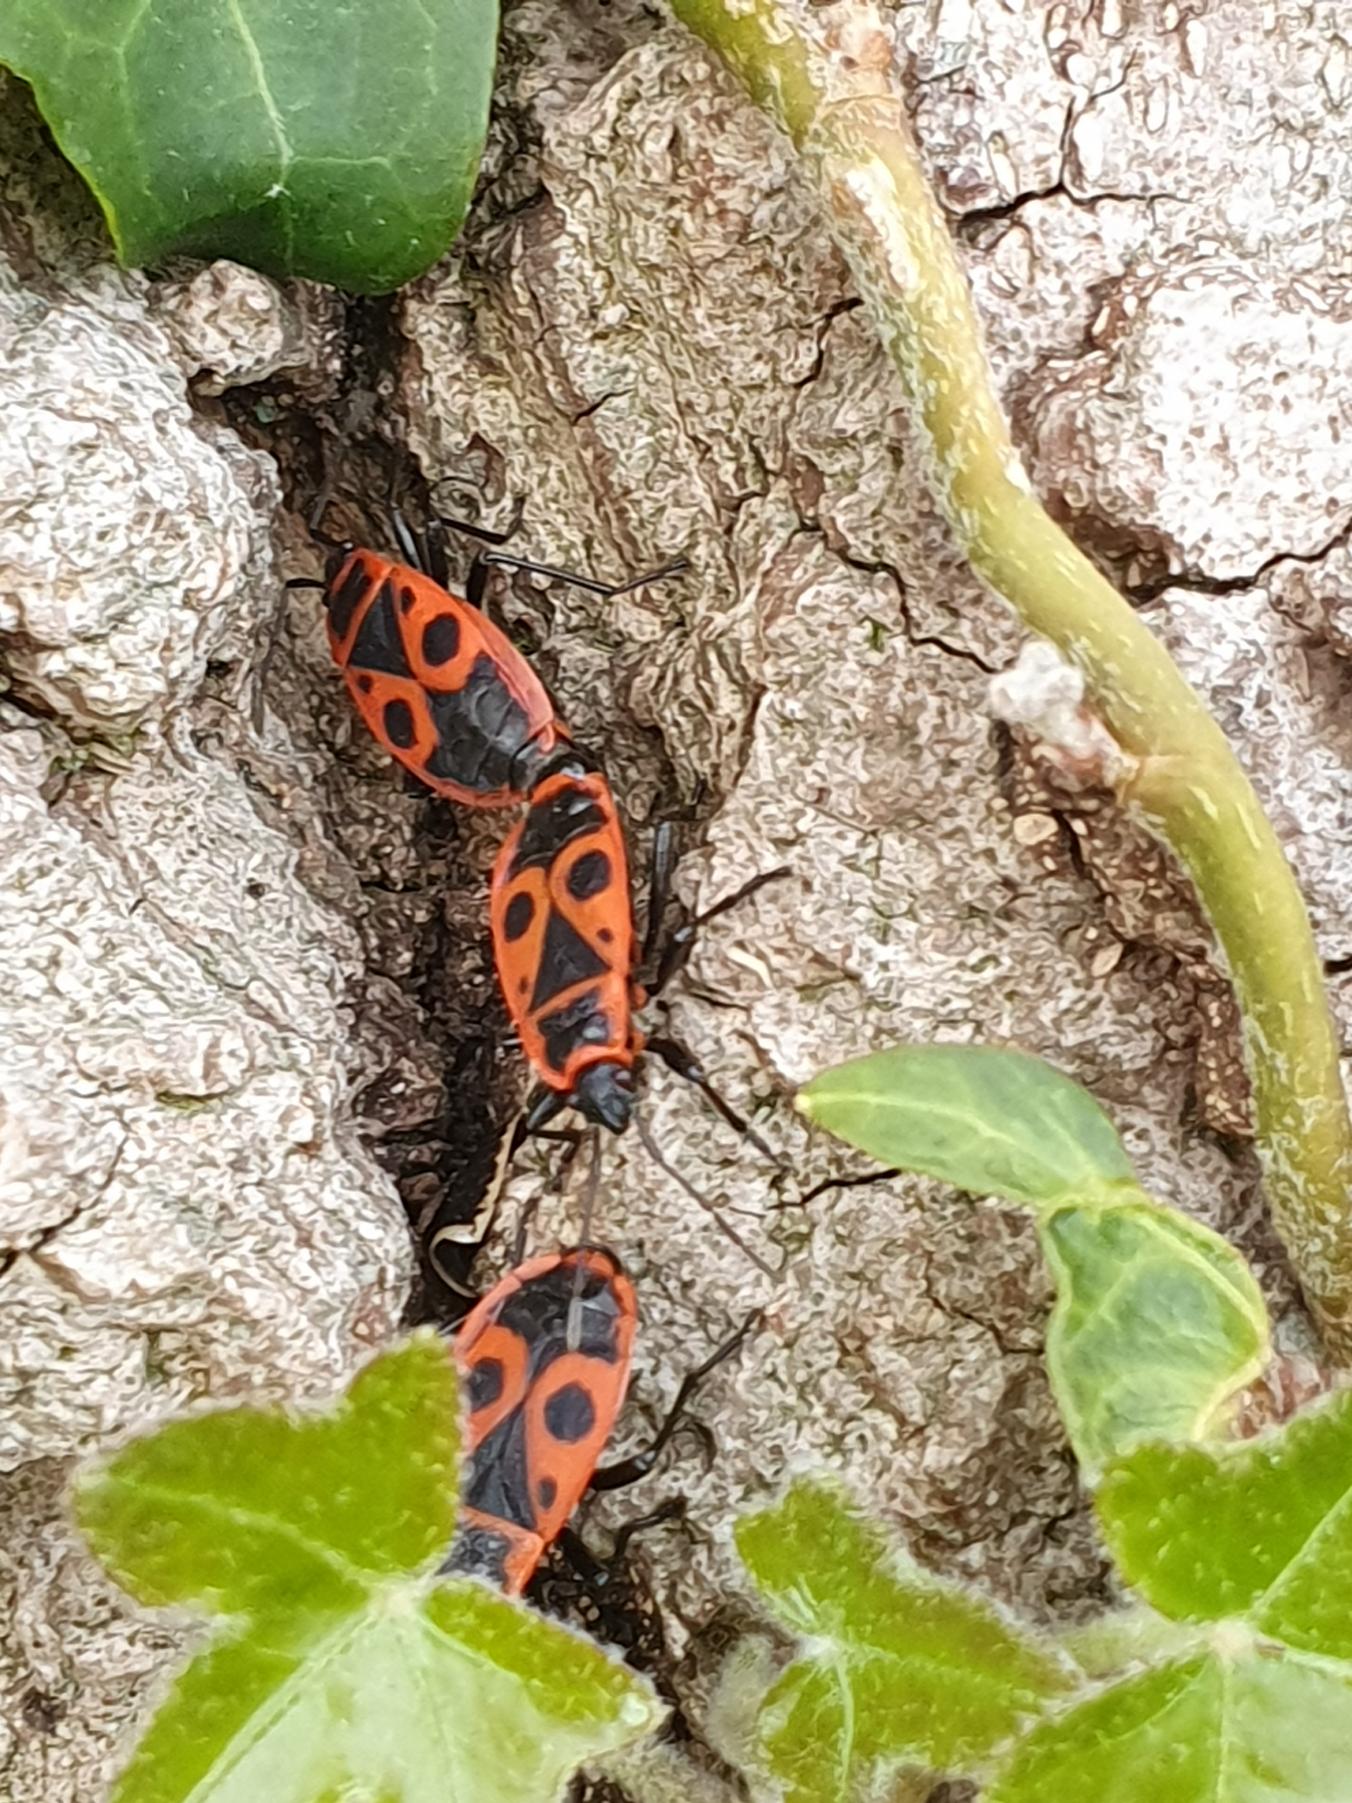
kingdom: Animalia
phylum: Arthropoda
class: Insecta
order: Hemiptera
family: Pyrrhocoridae
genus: Pyrrhocoris
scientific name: Pyrrhocoris apterus
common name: Ildtæge
